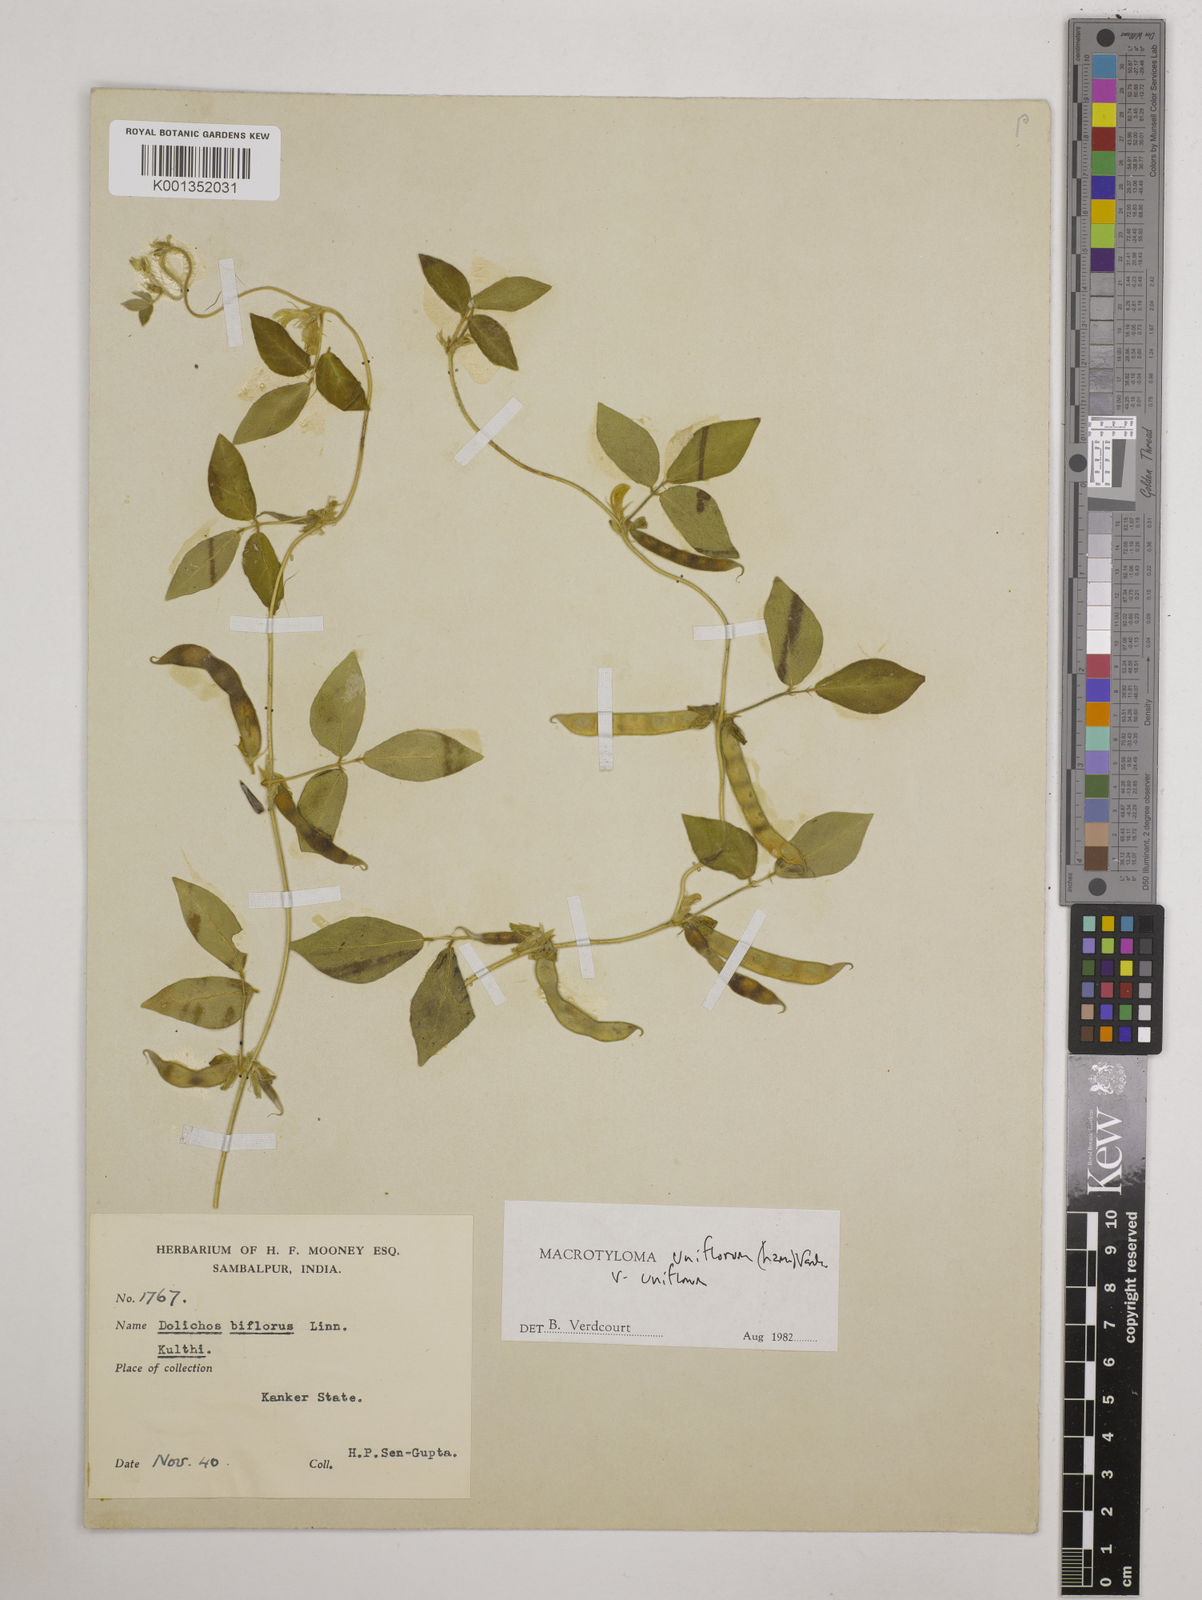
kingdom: Plantae
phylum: Tracheophyta
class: Magnoliopsida
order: Fabales
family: Fabaceae
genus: Macrotyloma
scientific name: Macrotyloma uniflorum
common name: Horse gram
